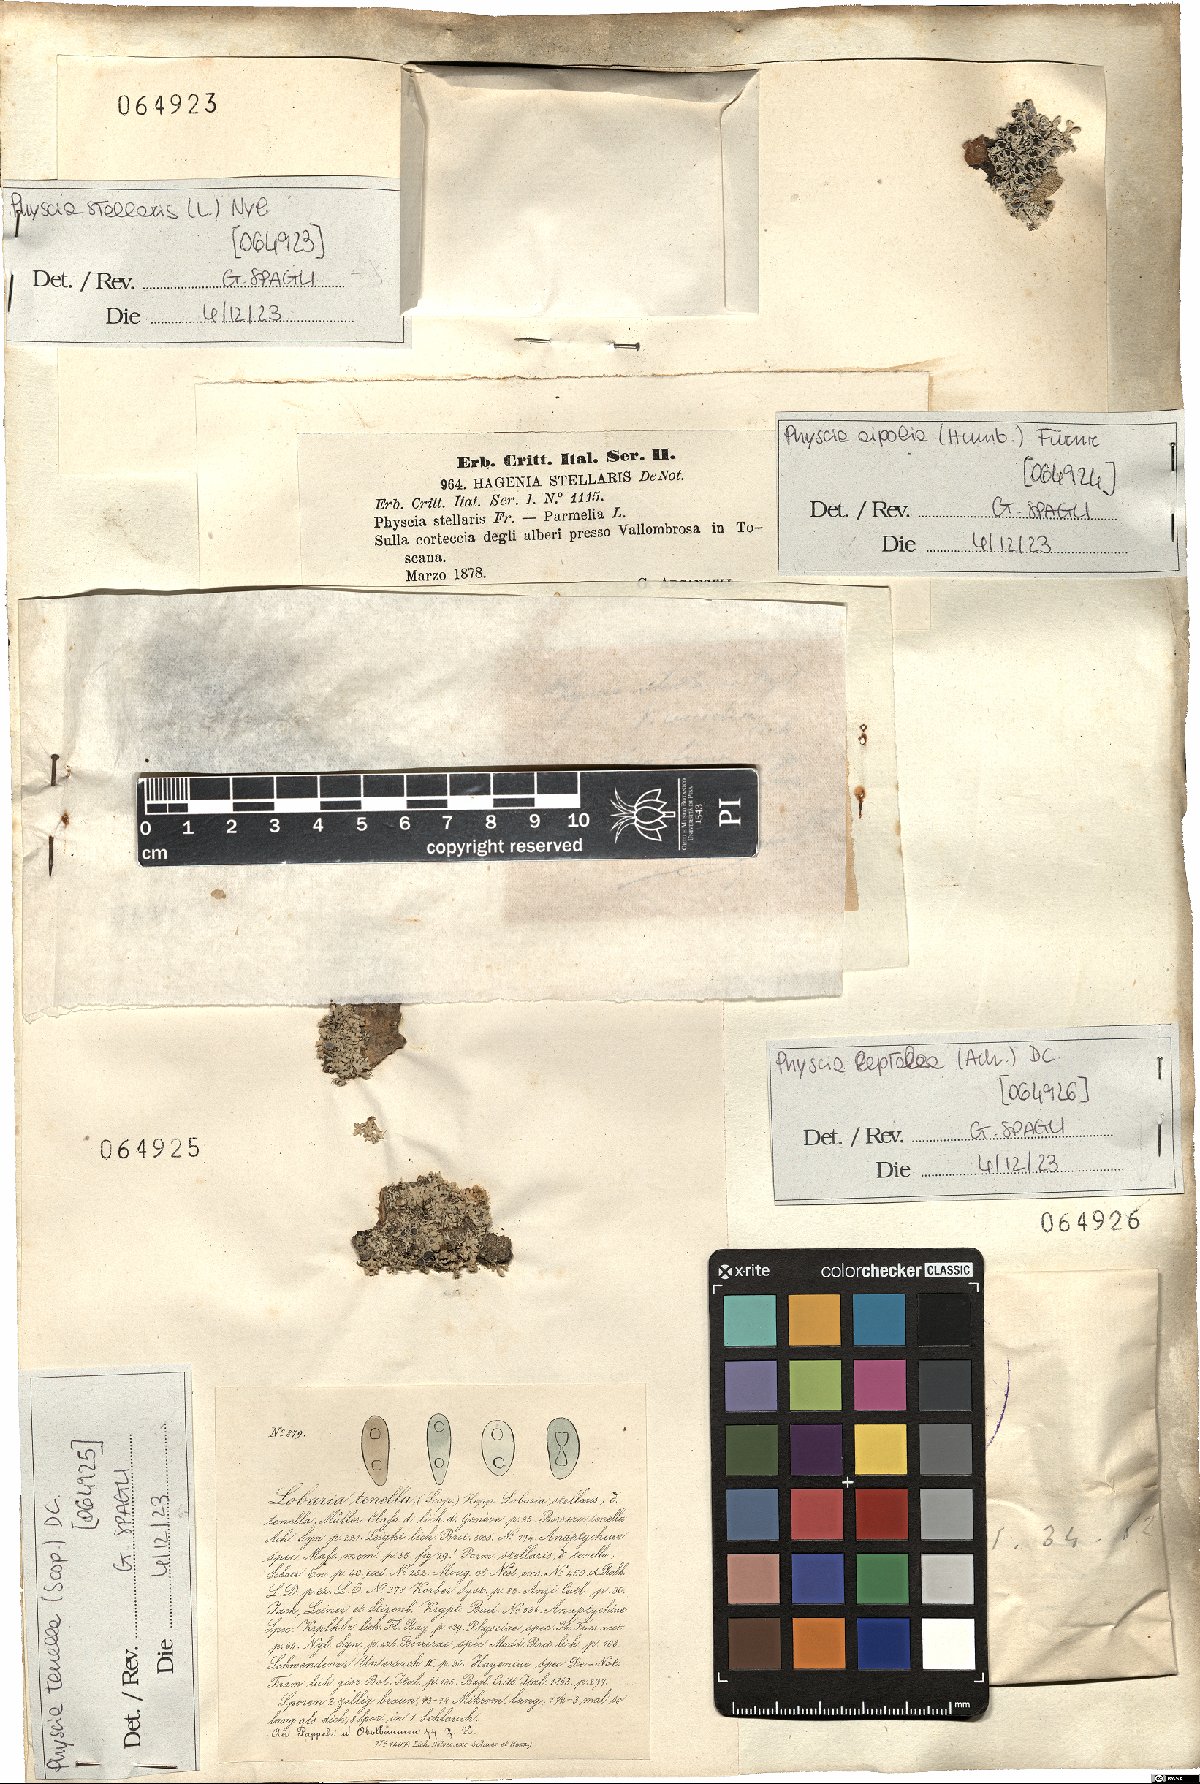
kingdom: Fungi
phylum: Ascomycota
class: Lecanoromycetes
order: Caliciales
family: Physciaceae
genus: Physcia
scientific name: Physcia tenella
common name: Fringed rosette lichen
